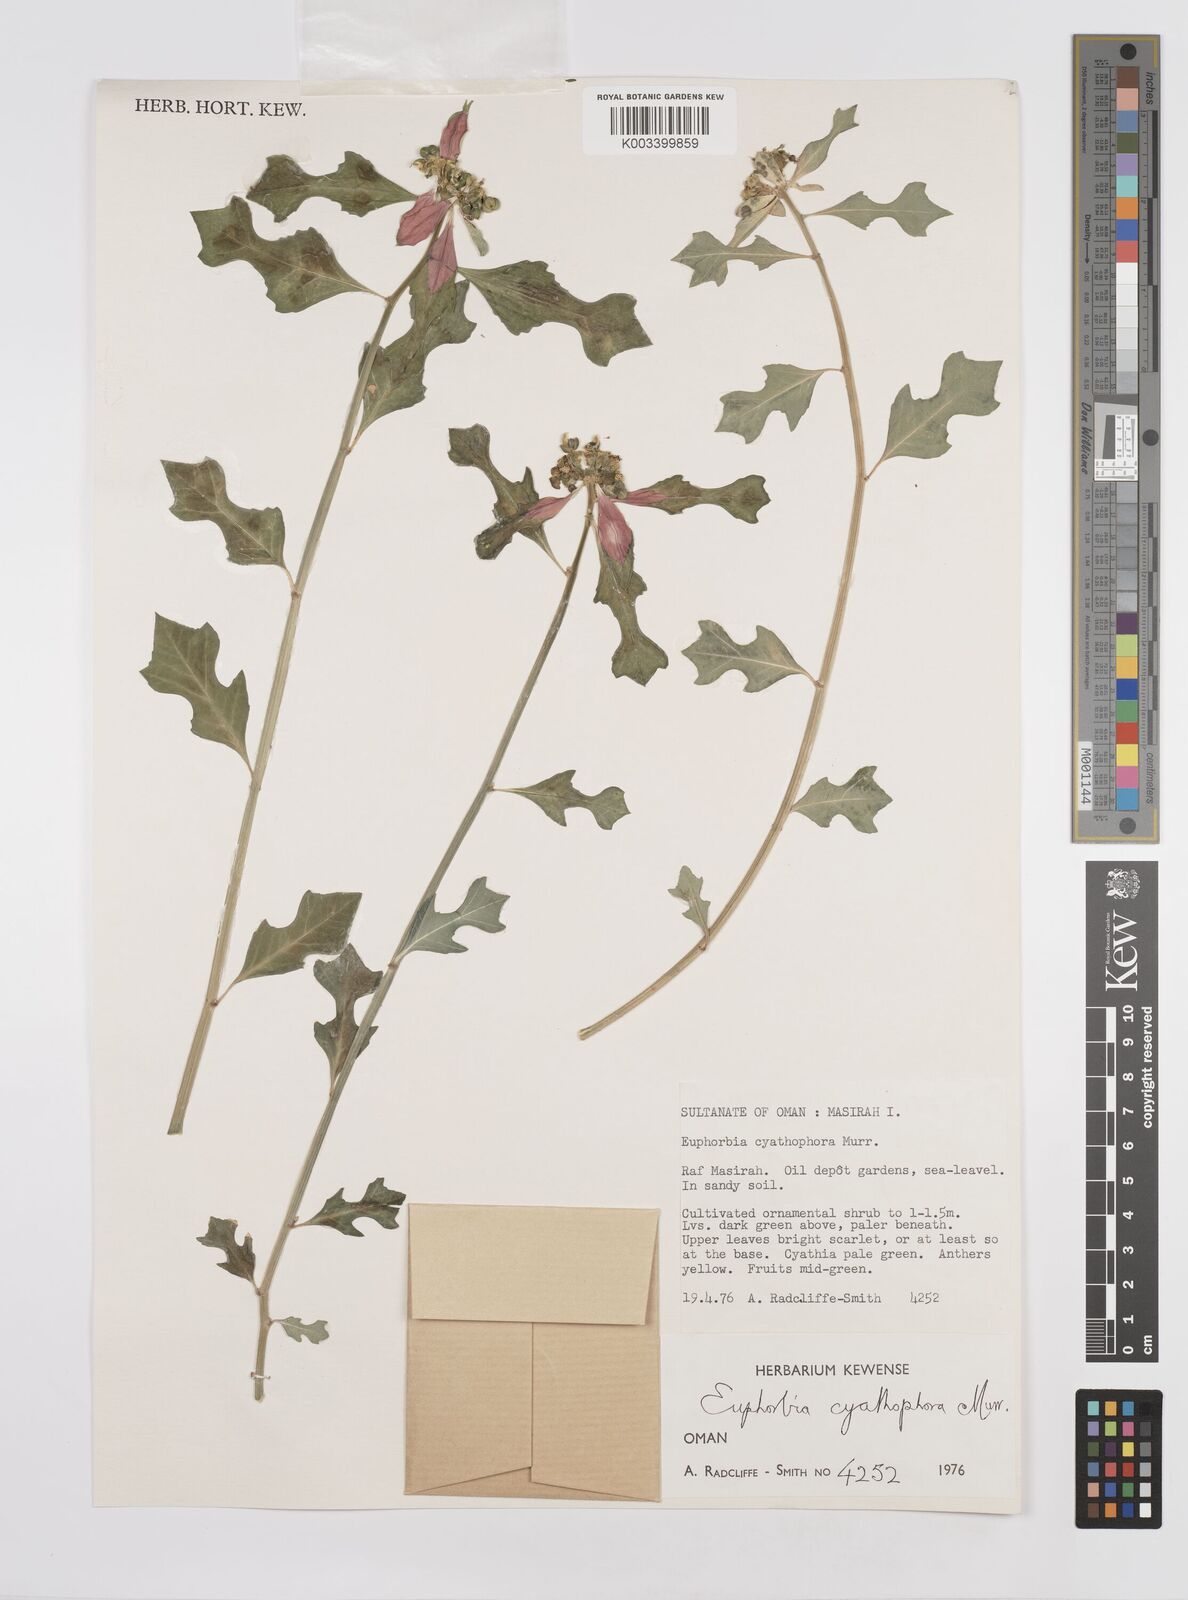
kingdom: Plantae
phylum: Tracheophyta
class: Magnoliopsida
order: Malpighiales
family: Euphorbiaceae
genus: Euphorbia
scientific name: Euphorbia heterophylla
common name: Mexican fireplant
